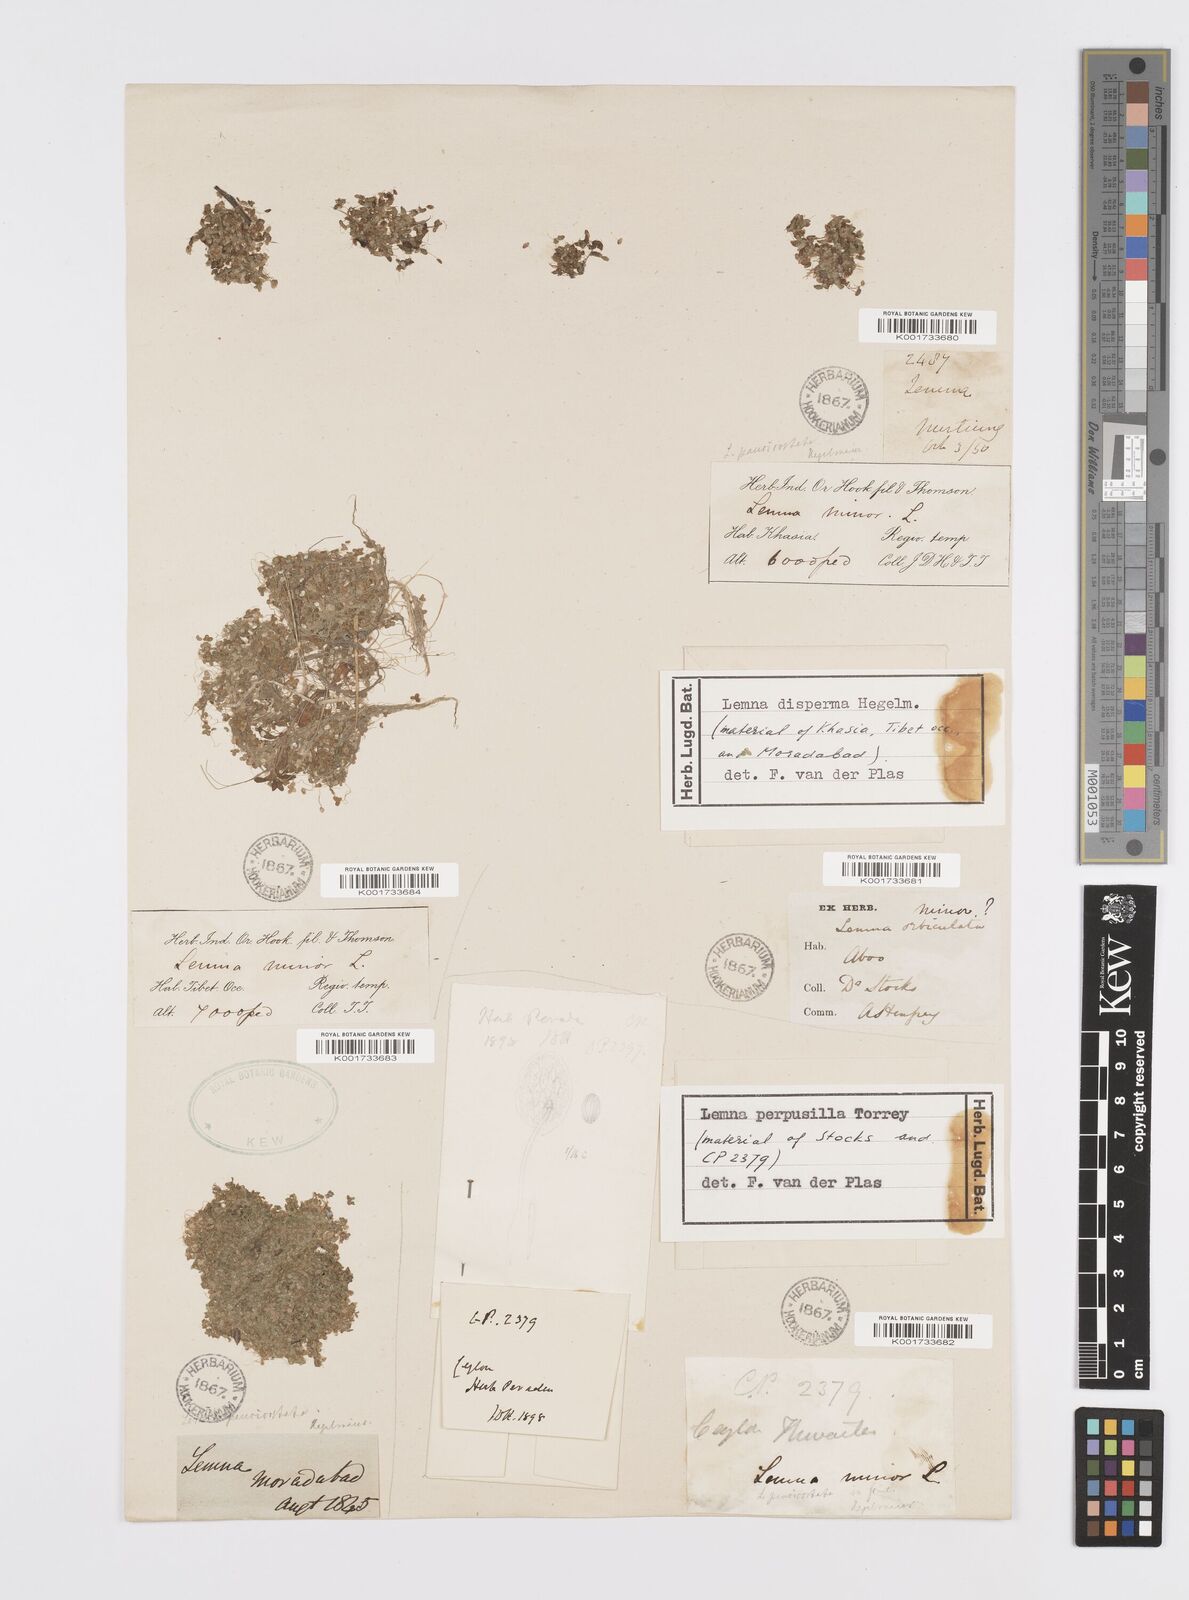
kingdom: Plantae
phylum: Tracheophyta
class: Liliopsida
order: Alismatales
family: Araceae
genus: Lemna
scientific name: Lemna perpusilla
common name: Duckweed
